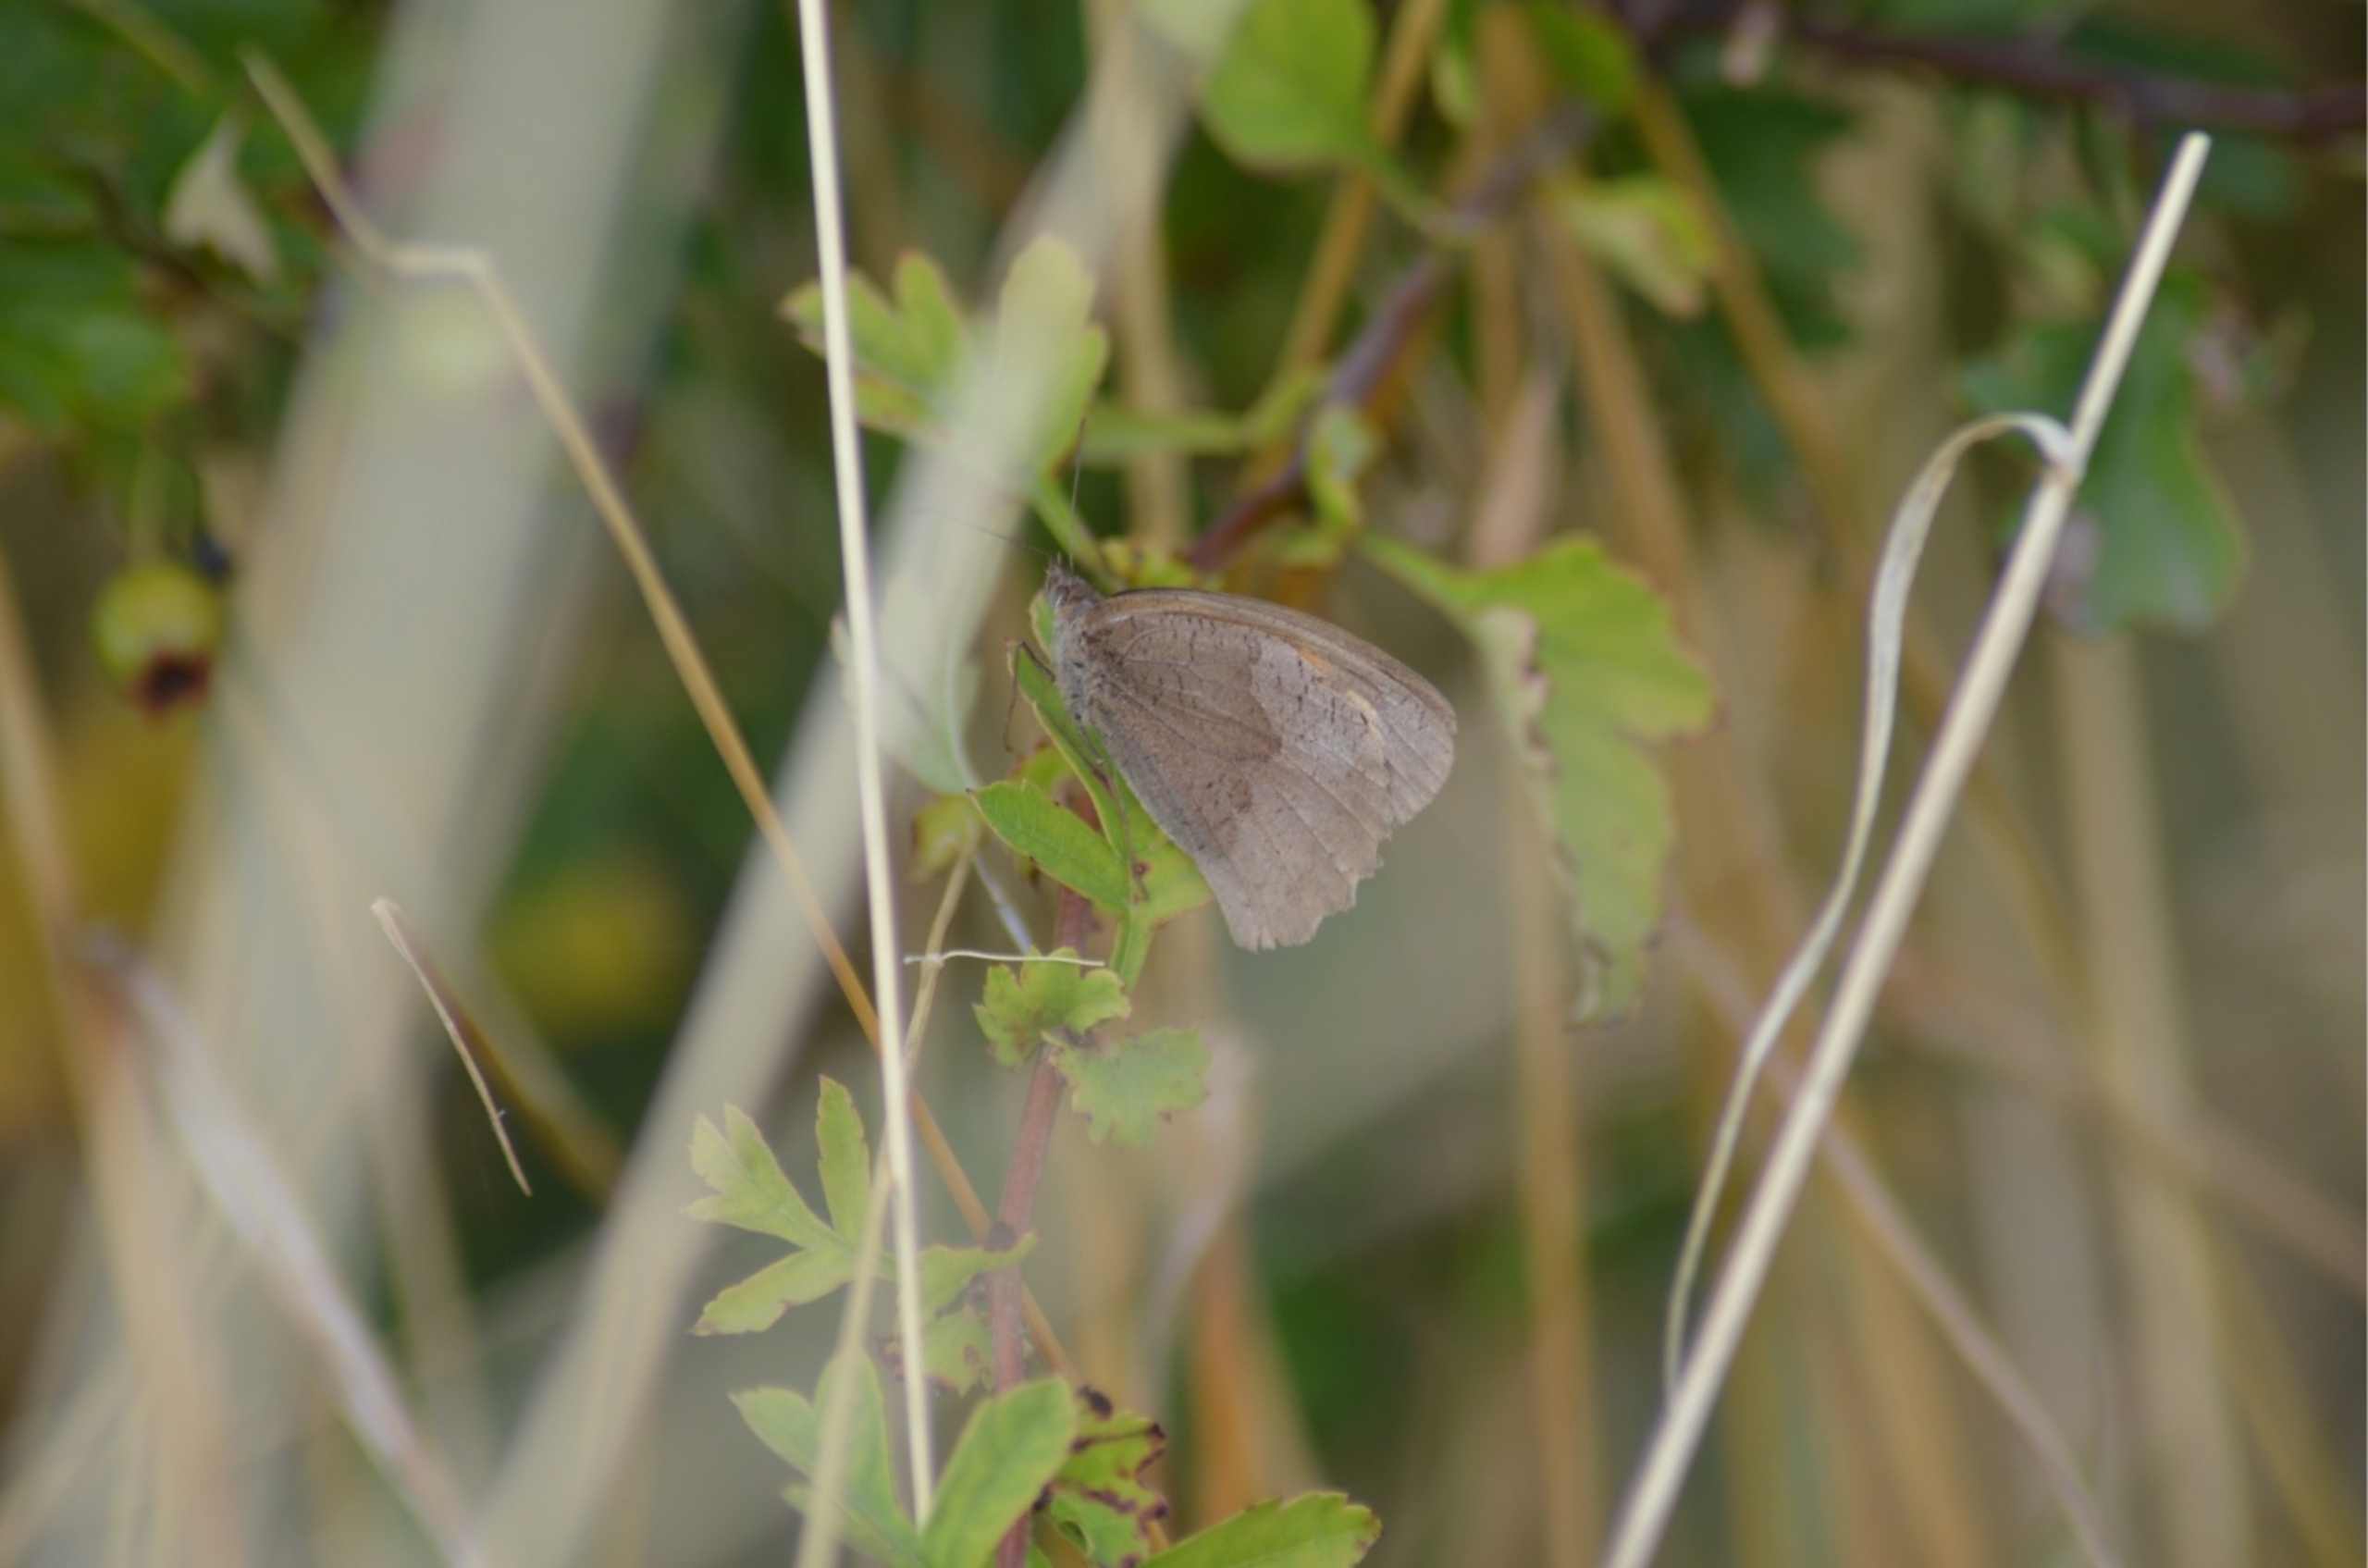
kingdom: Animalia
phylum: Arthropoda
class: Insecta
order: Lepidoptera
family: Nymphalidae
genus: Maniola
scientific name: Maniola jurtina
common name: Græsrandøje
